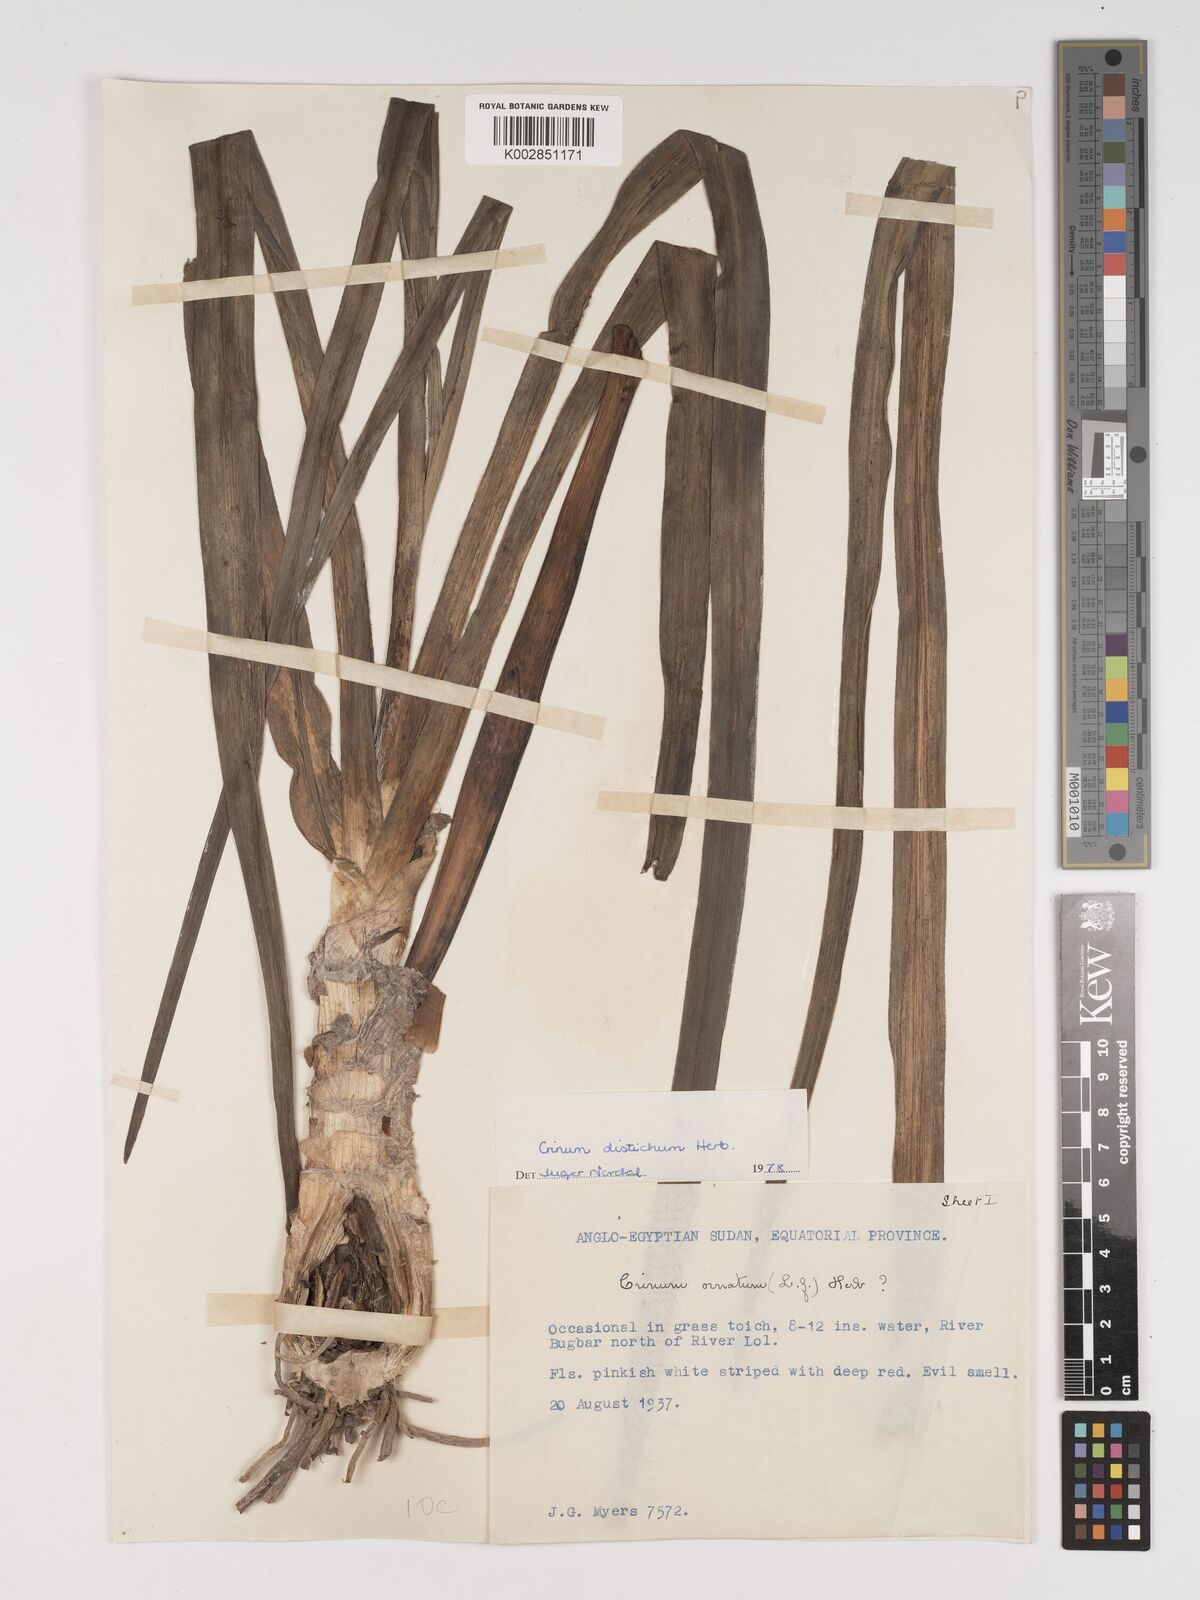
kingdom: Plantae
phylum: Tracheophyta
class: Liliopsida
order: Asparagales
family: Amaryllidaceae
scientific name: Amaryllidaceae
